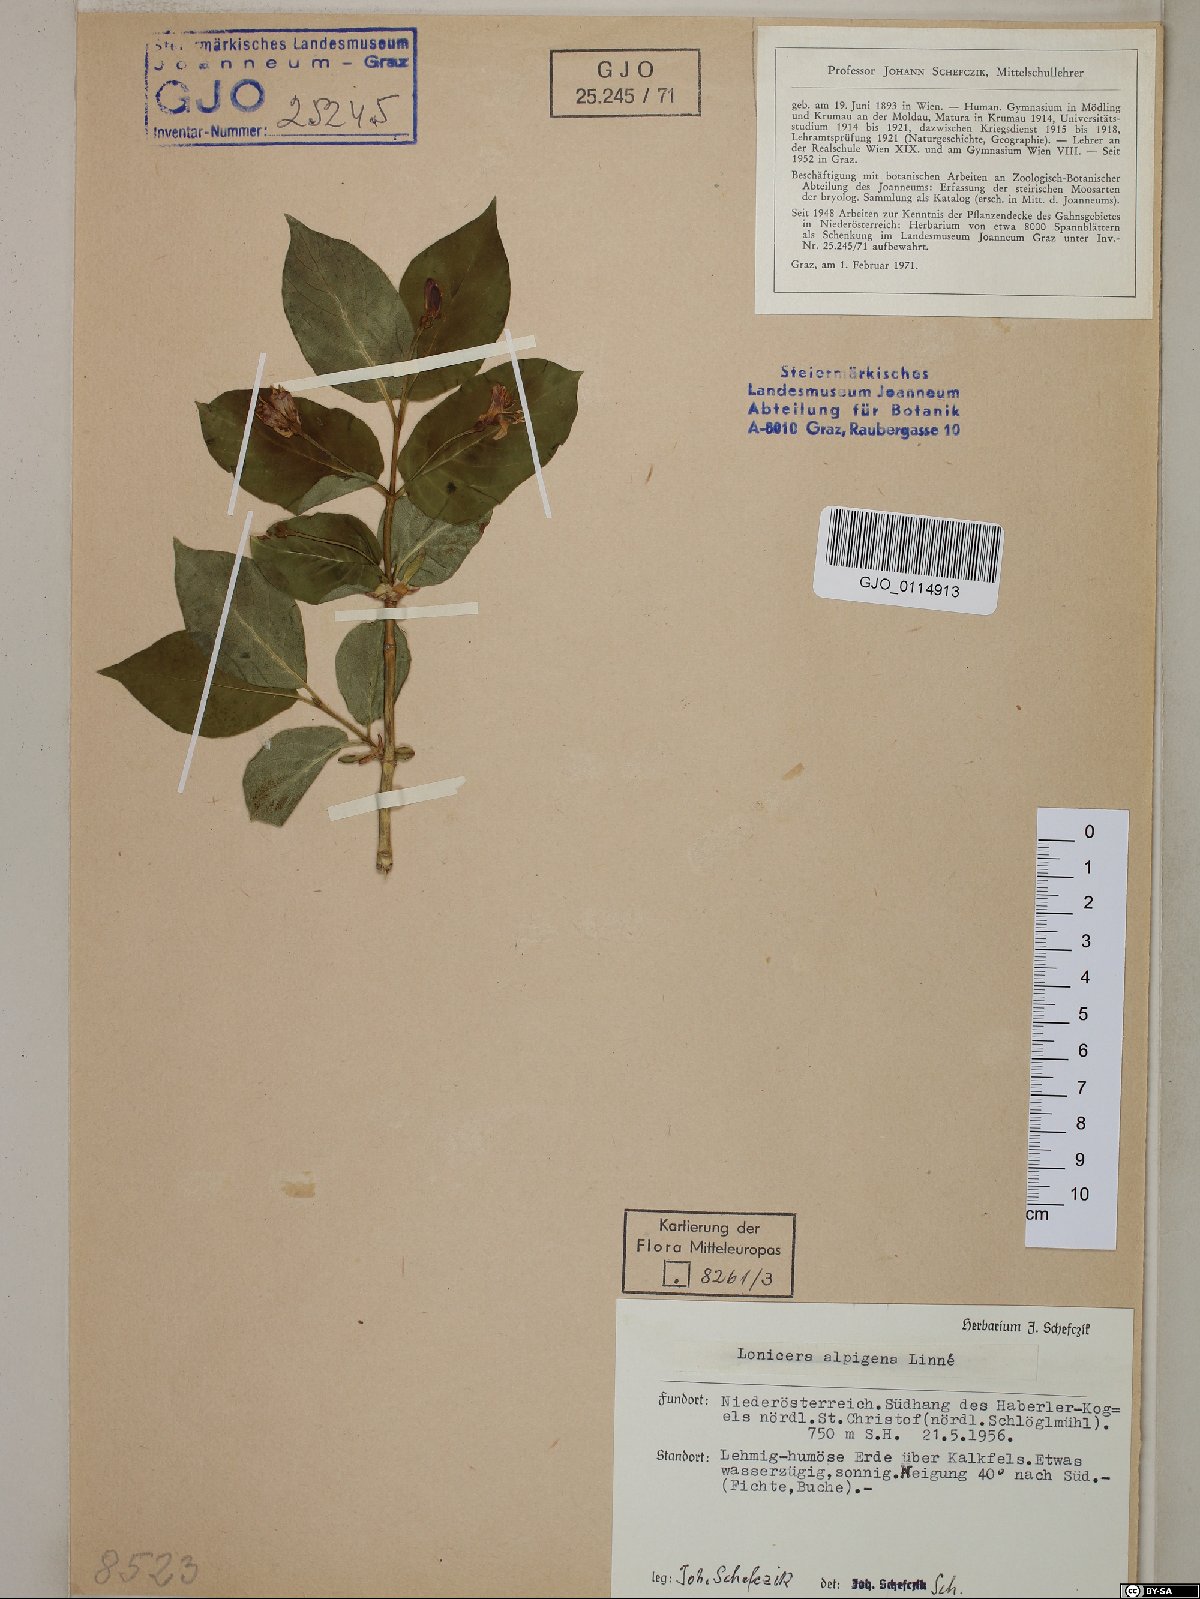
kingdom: Plantae
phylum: Tracheophyta
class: Magnoliopsida
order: Dipsacales
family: Caprifoliaceae
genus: Lonicera
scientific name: Lonicera alpigena
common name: Alpine honeysuckle
